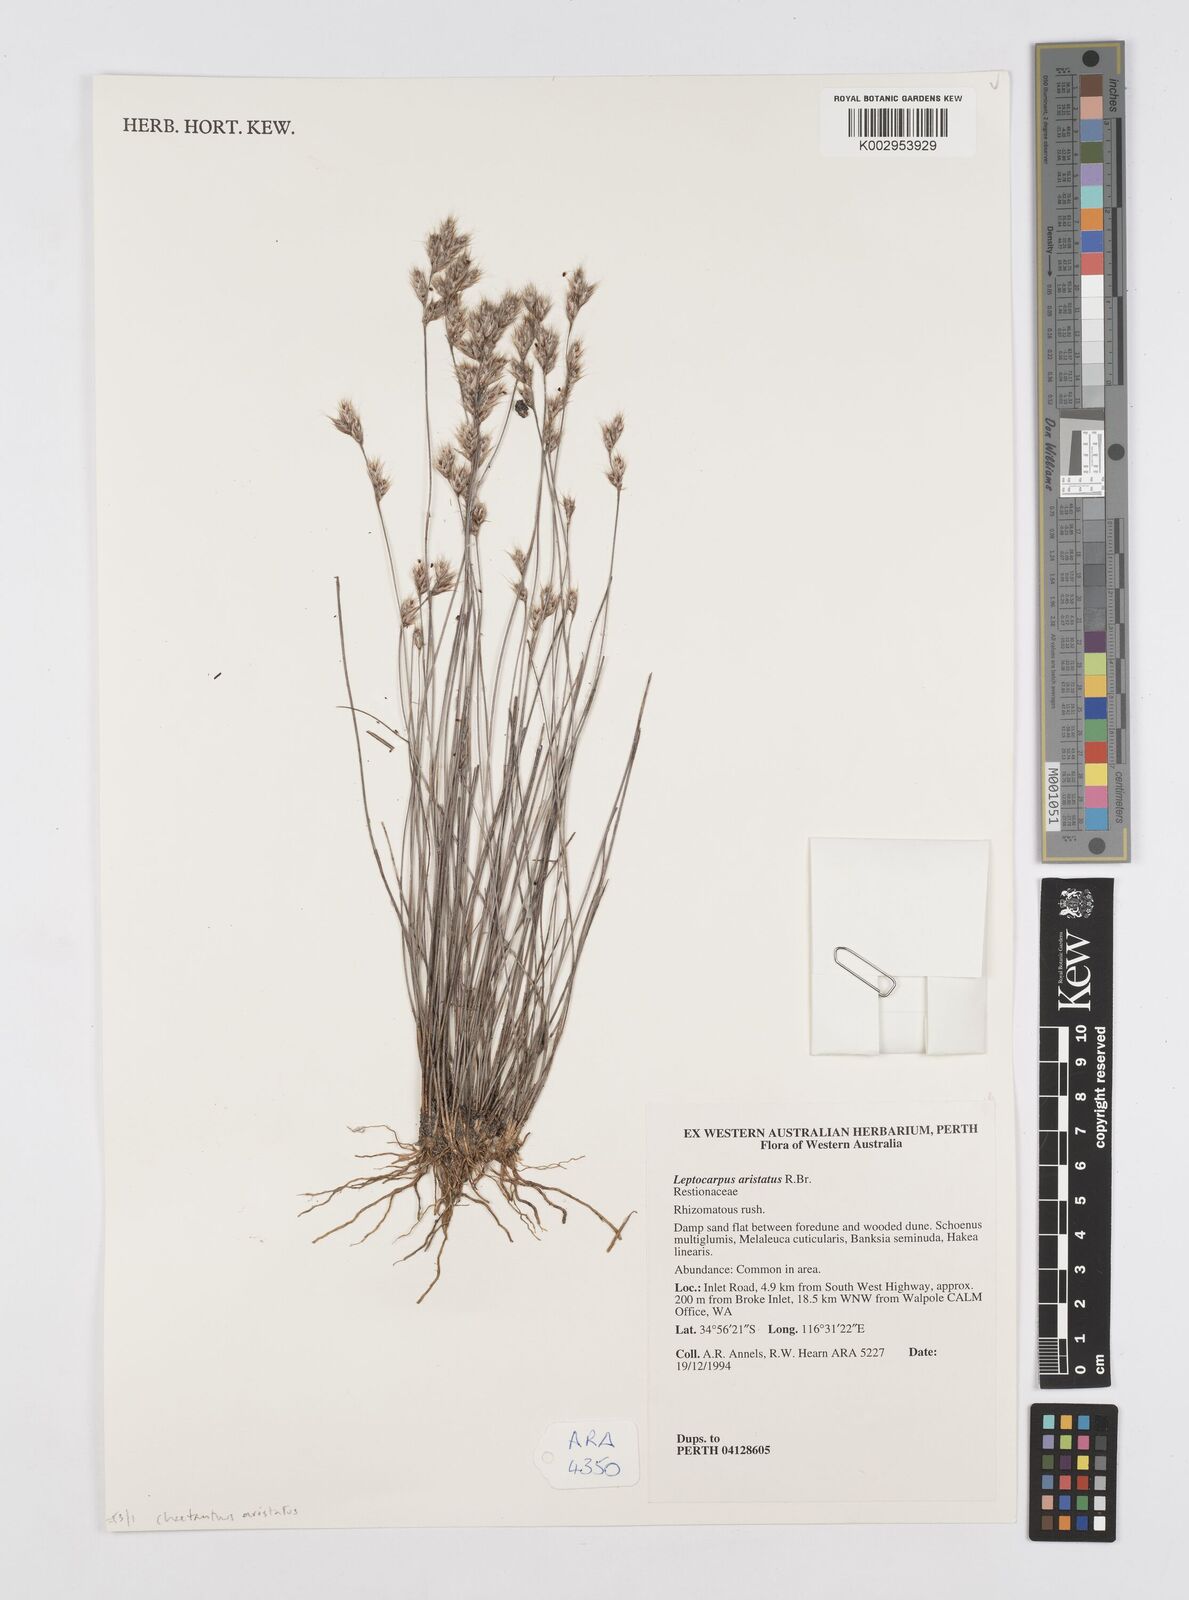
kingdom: Plantae
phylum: Tracheophyta
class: Liliopsida
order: Poales
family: Restionaceae
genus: Chaetanthus
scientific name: Chaetanthus aristatus
